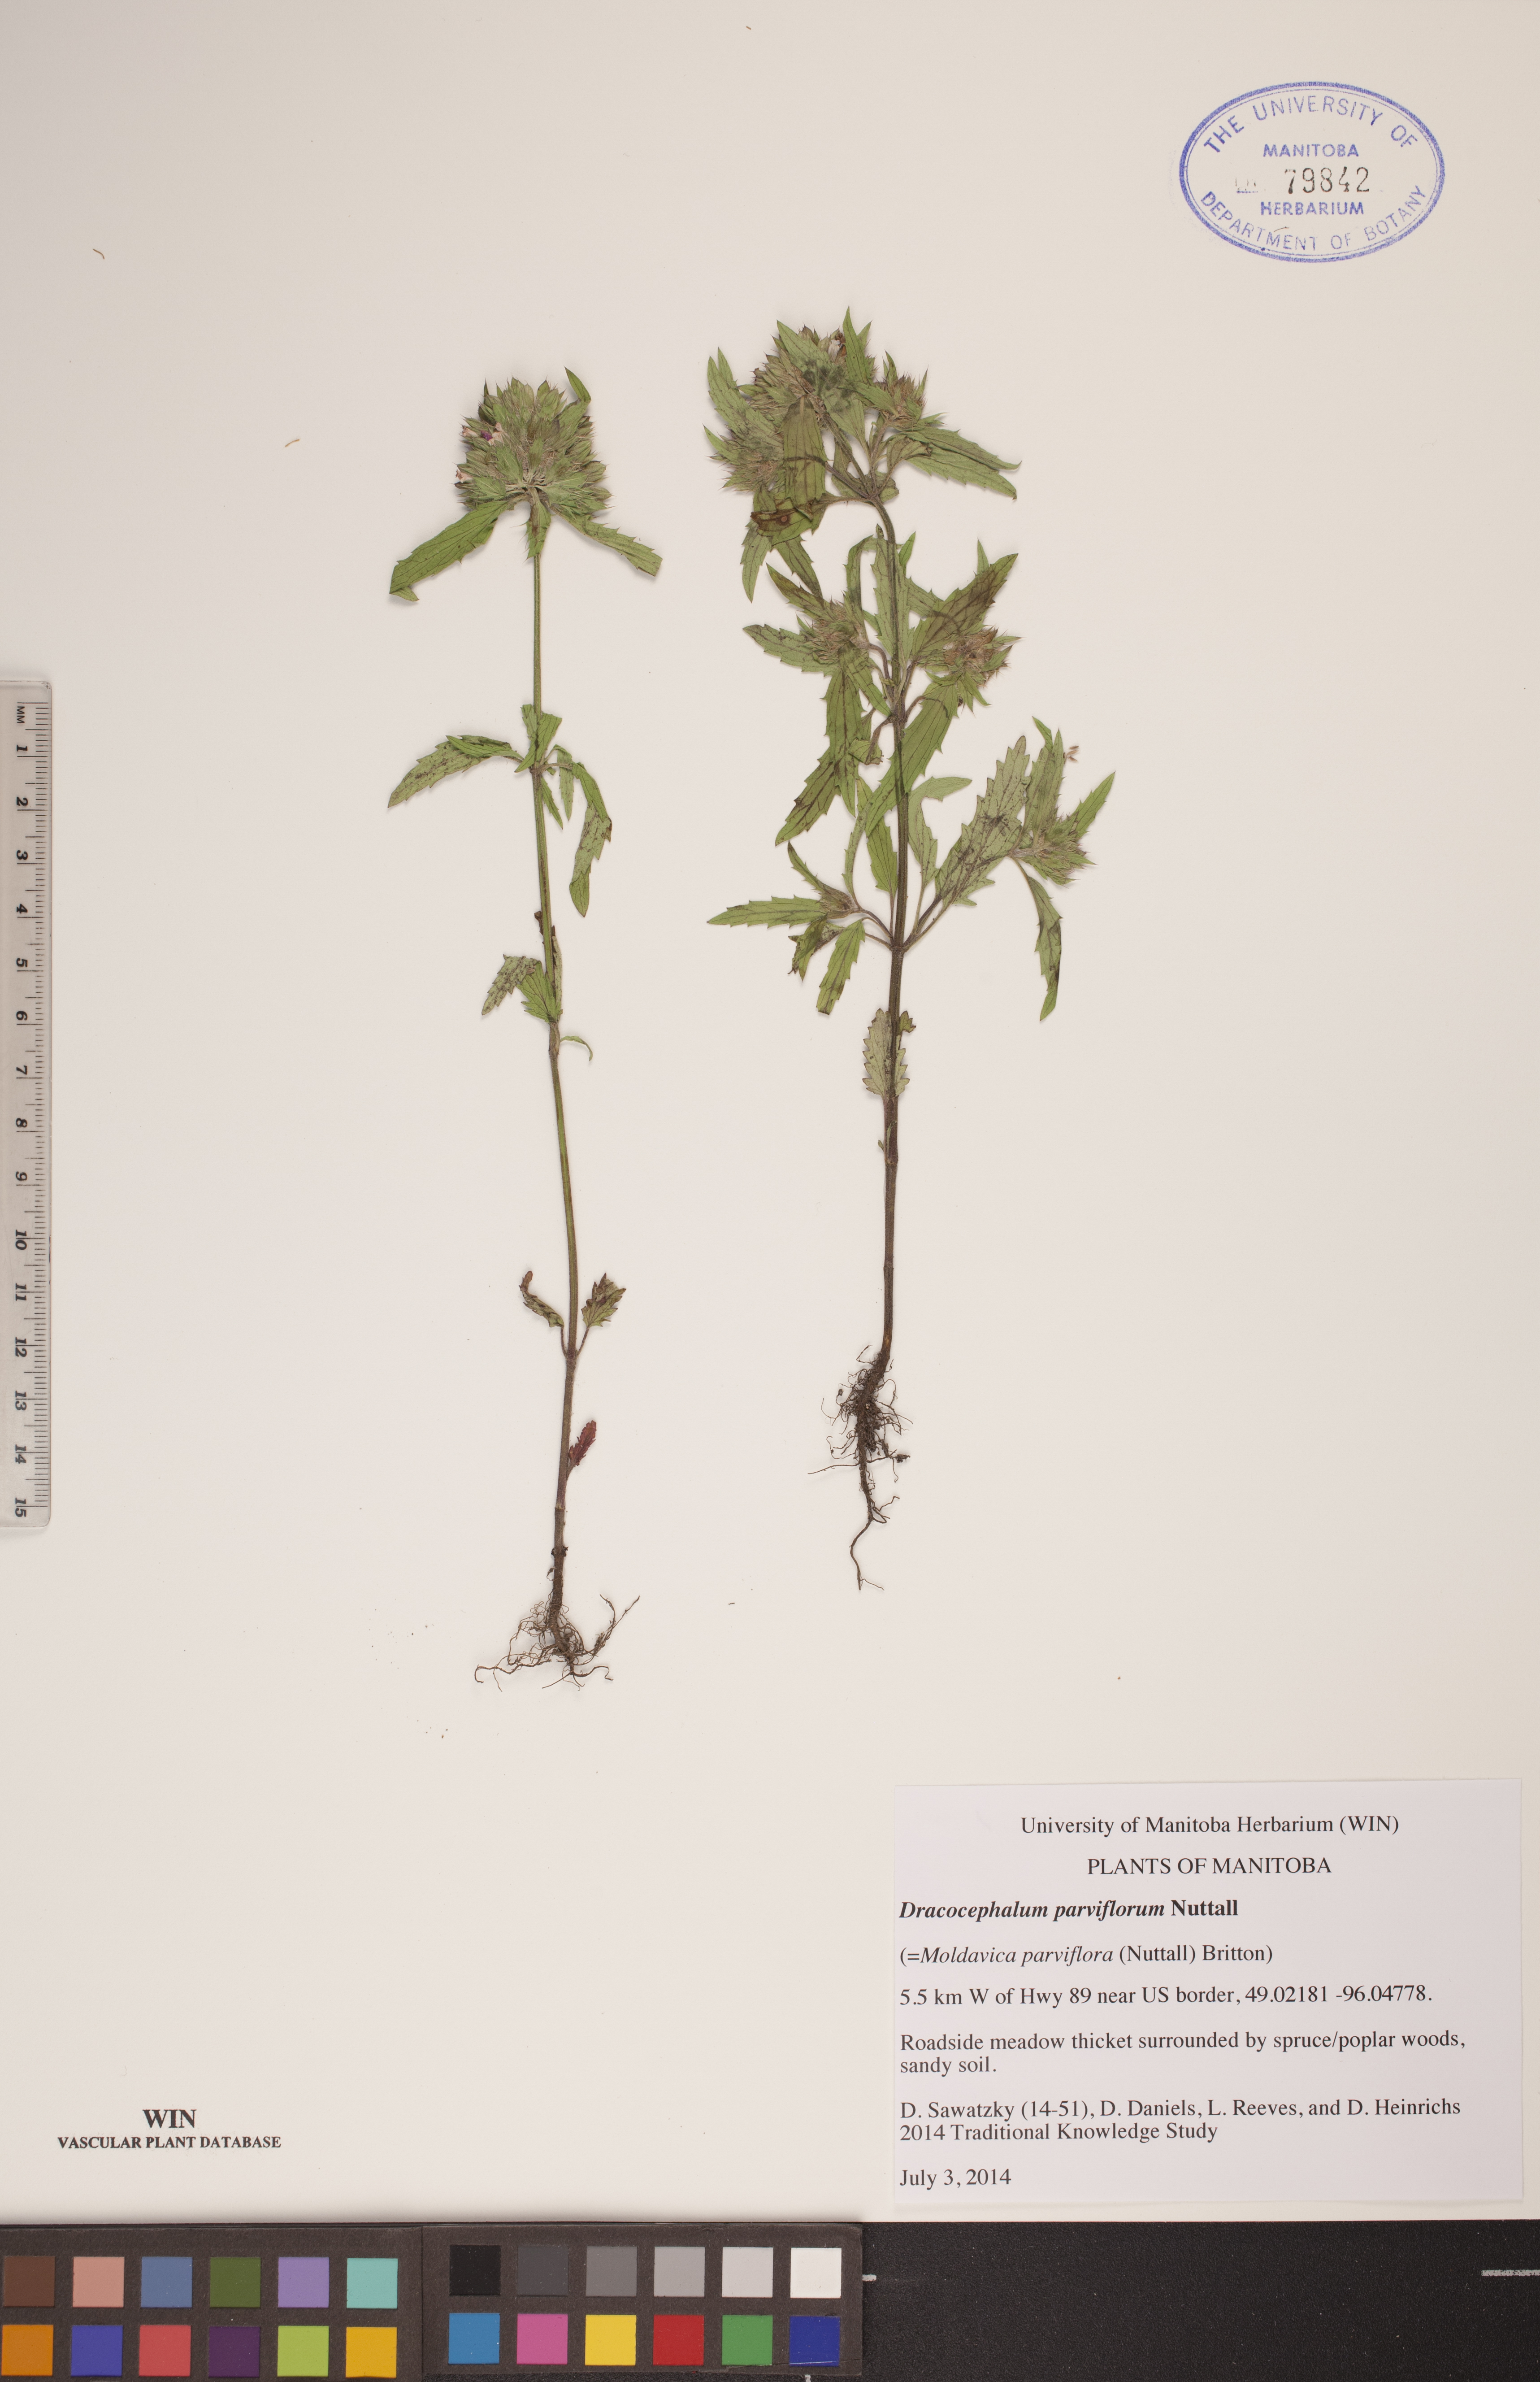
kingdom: Plantae
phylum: Tracheophyta
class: Magnoliopsida
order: Lamiales
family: Lamiaceae
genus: Dracocephalum
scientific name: Dracocephalum parviflorum
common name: American dragonhead
